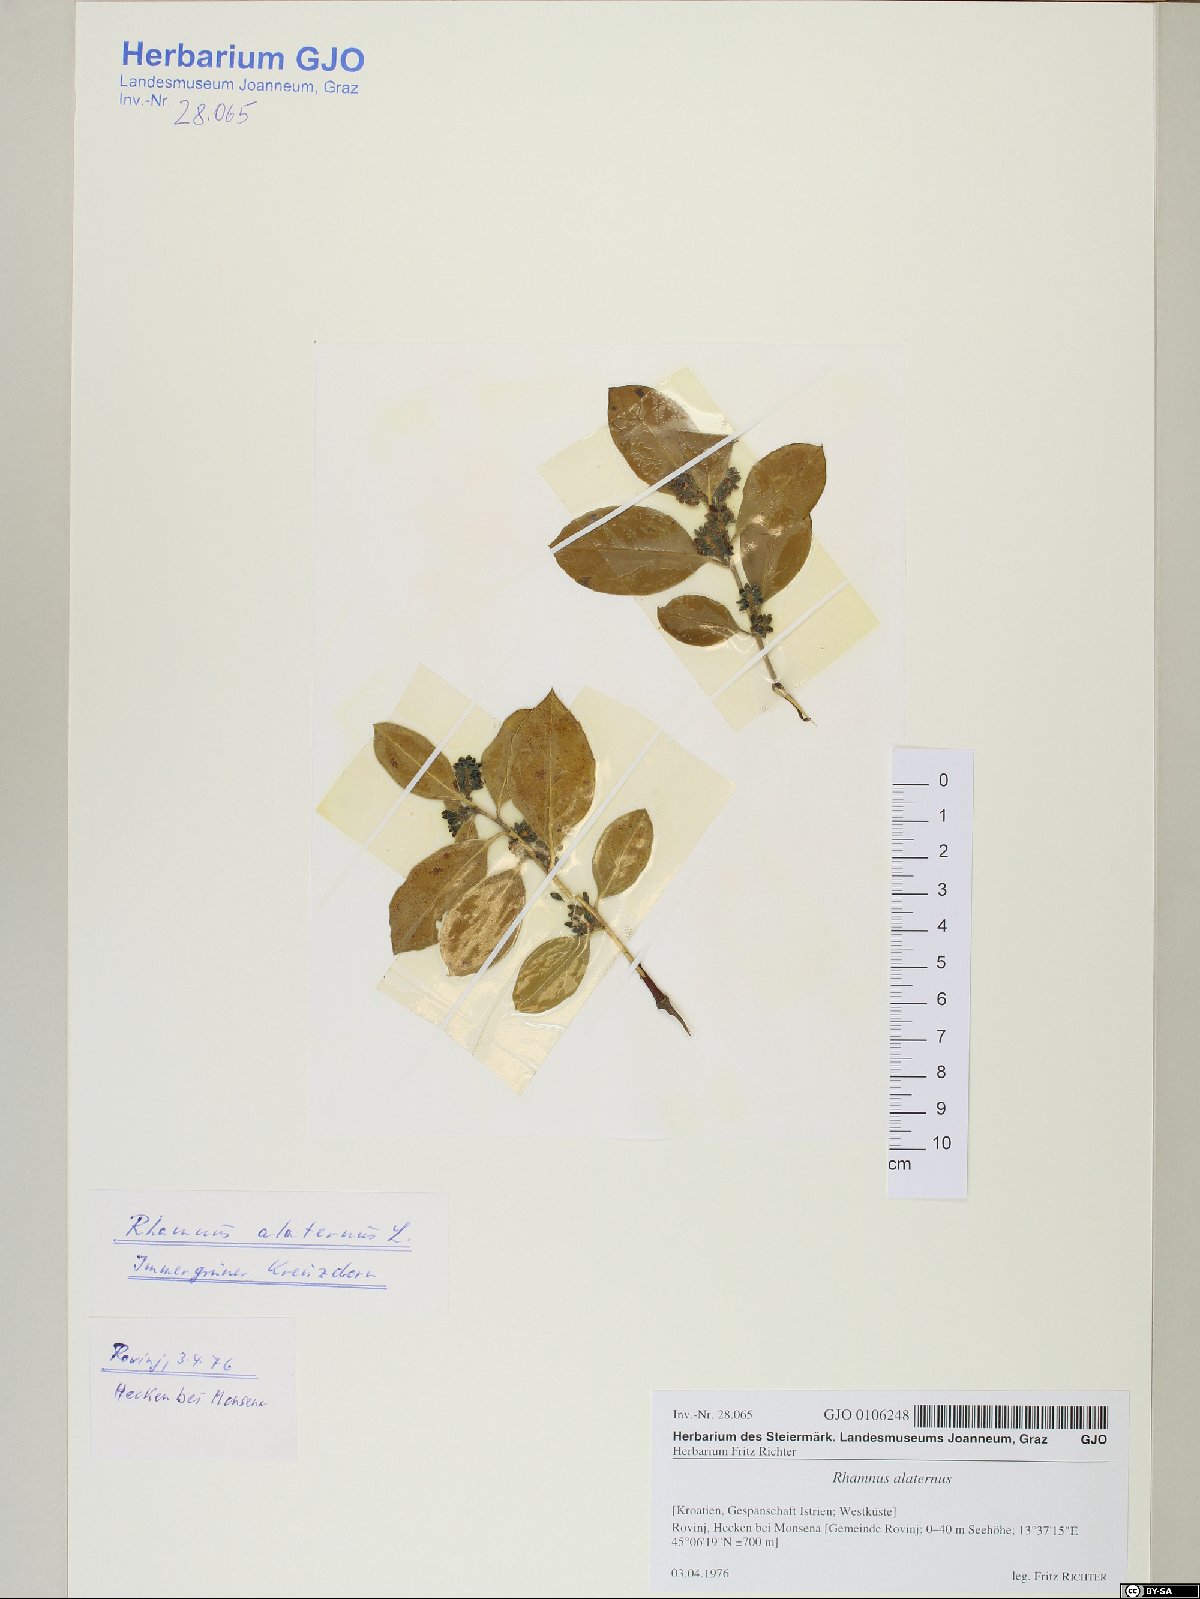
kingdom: Plantae
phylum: Tracheophyta
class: Magnoliopsida
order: Rosales
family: Rhamnaceae
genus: Rhamnus
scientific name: Rhamnus alaternus
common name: Mediterranean buckthorn
